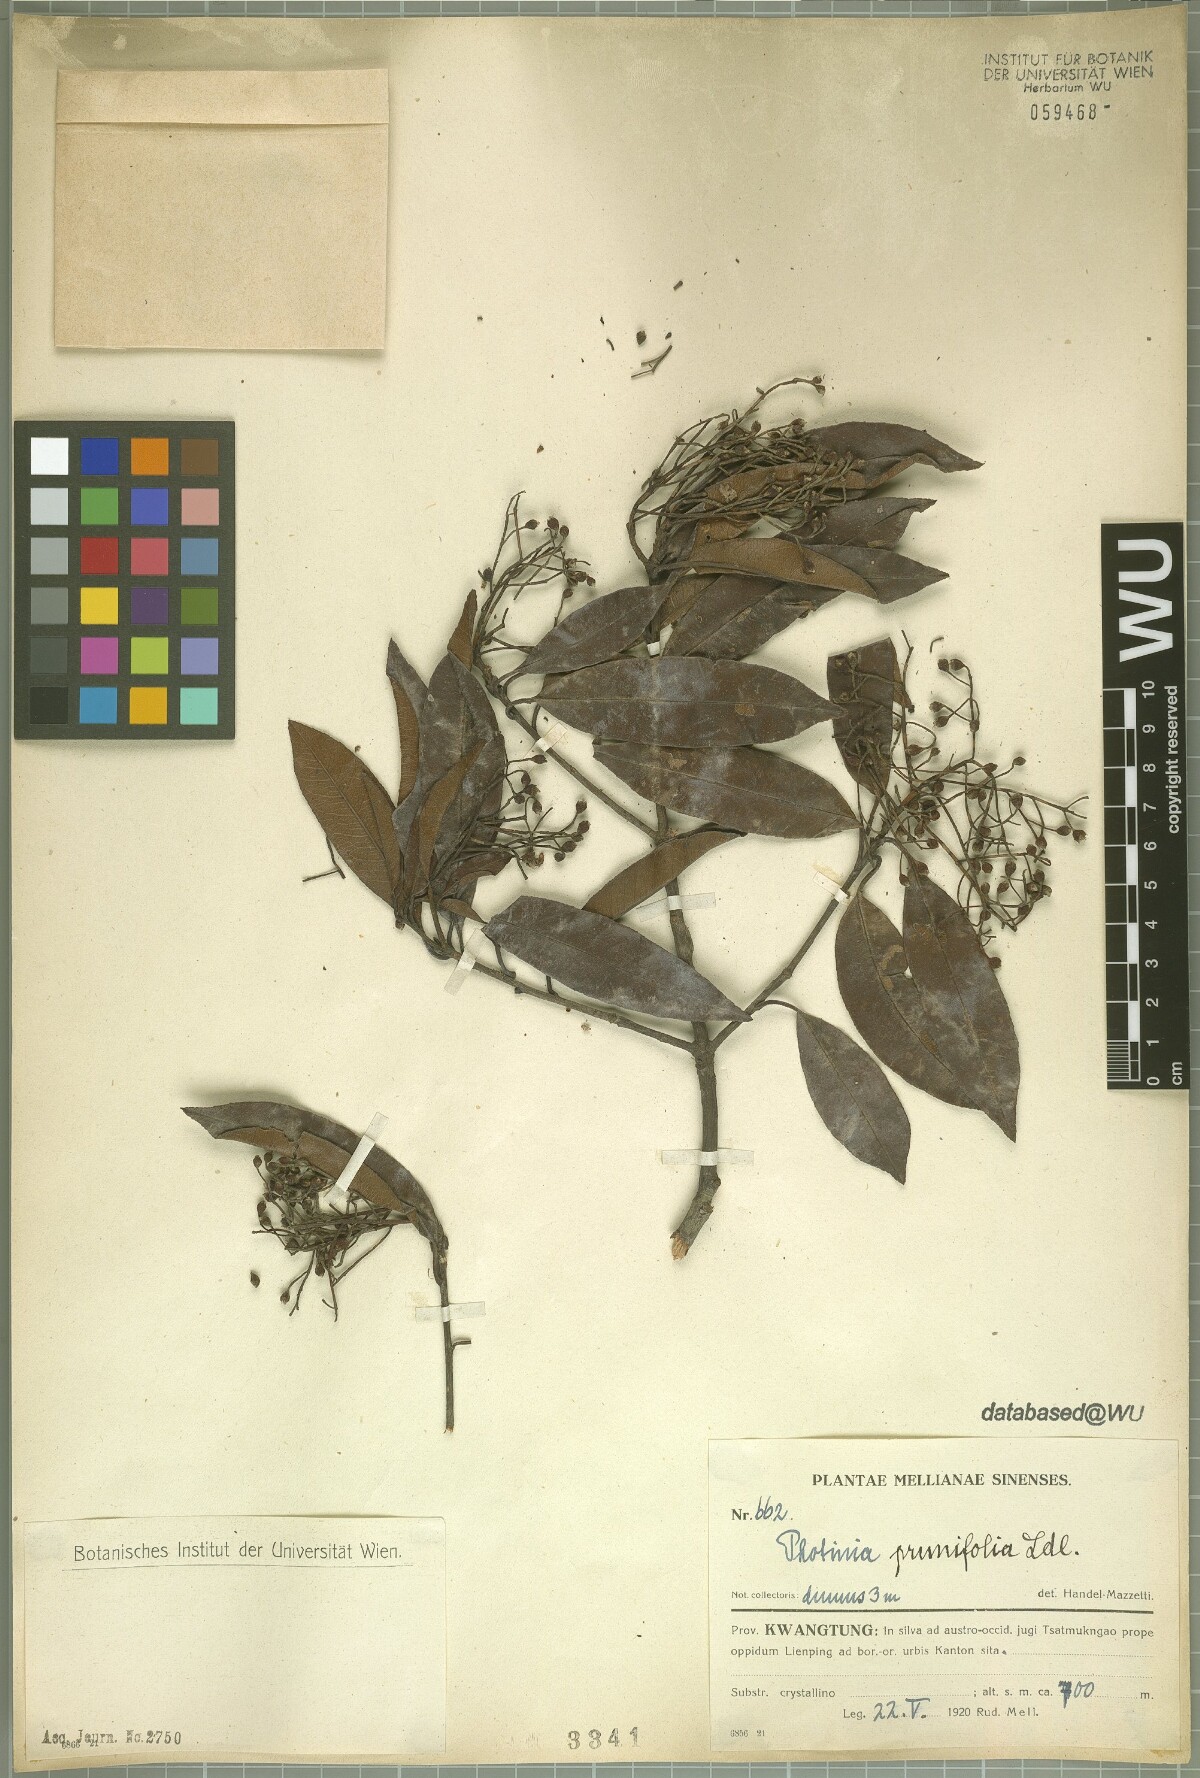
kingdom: Plantae
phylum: Tracheophyta
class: Magnoliopsida
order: Rosales
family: Rosaceae
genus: Photinia
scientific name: Photinia prunifolia
